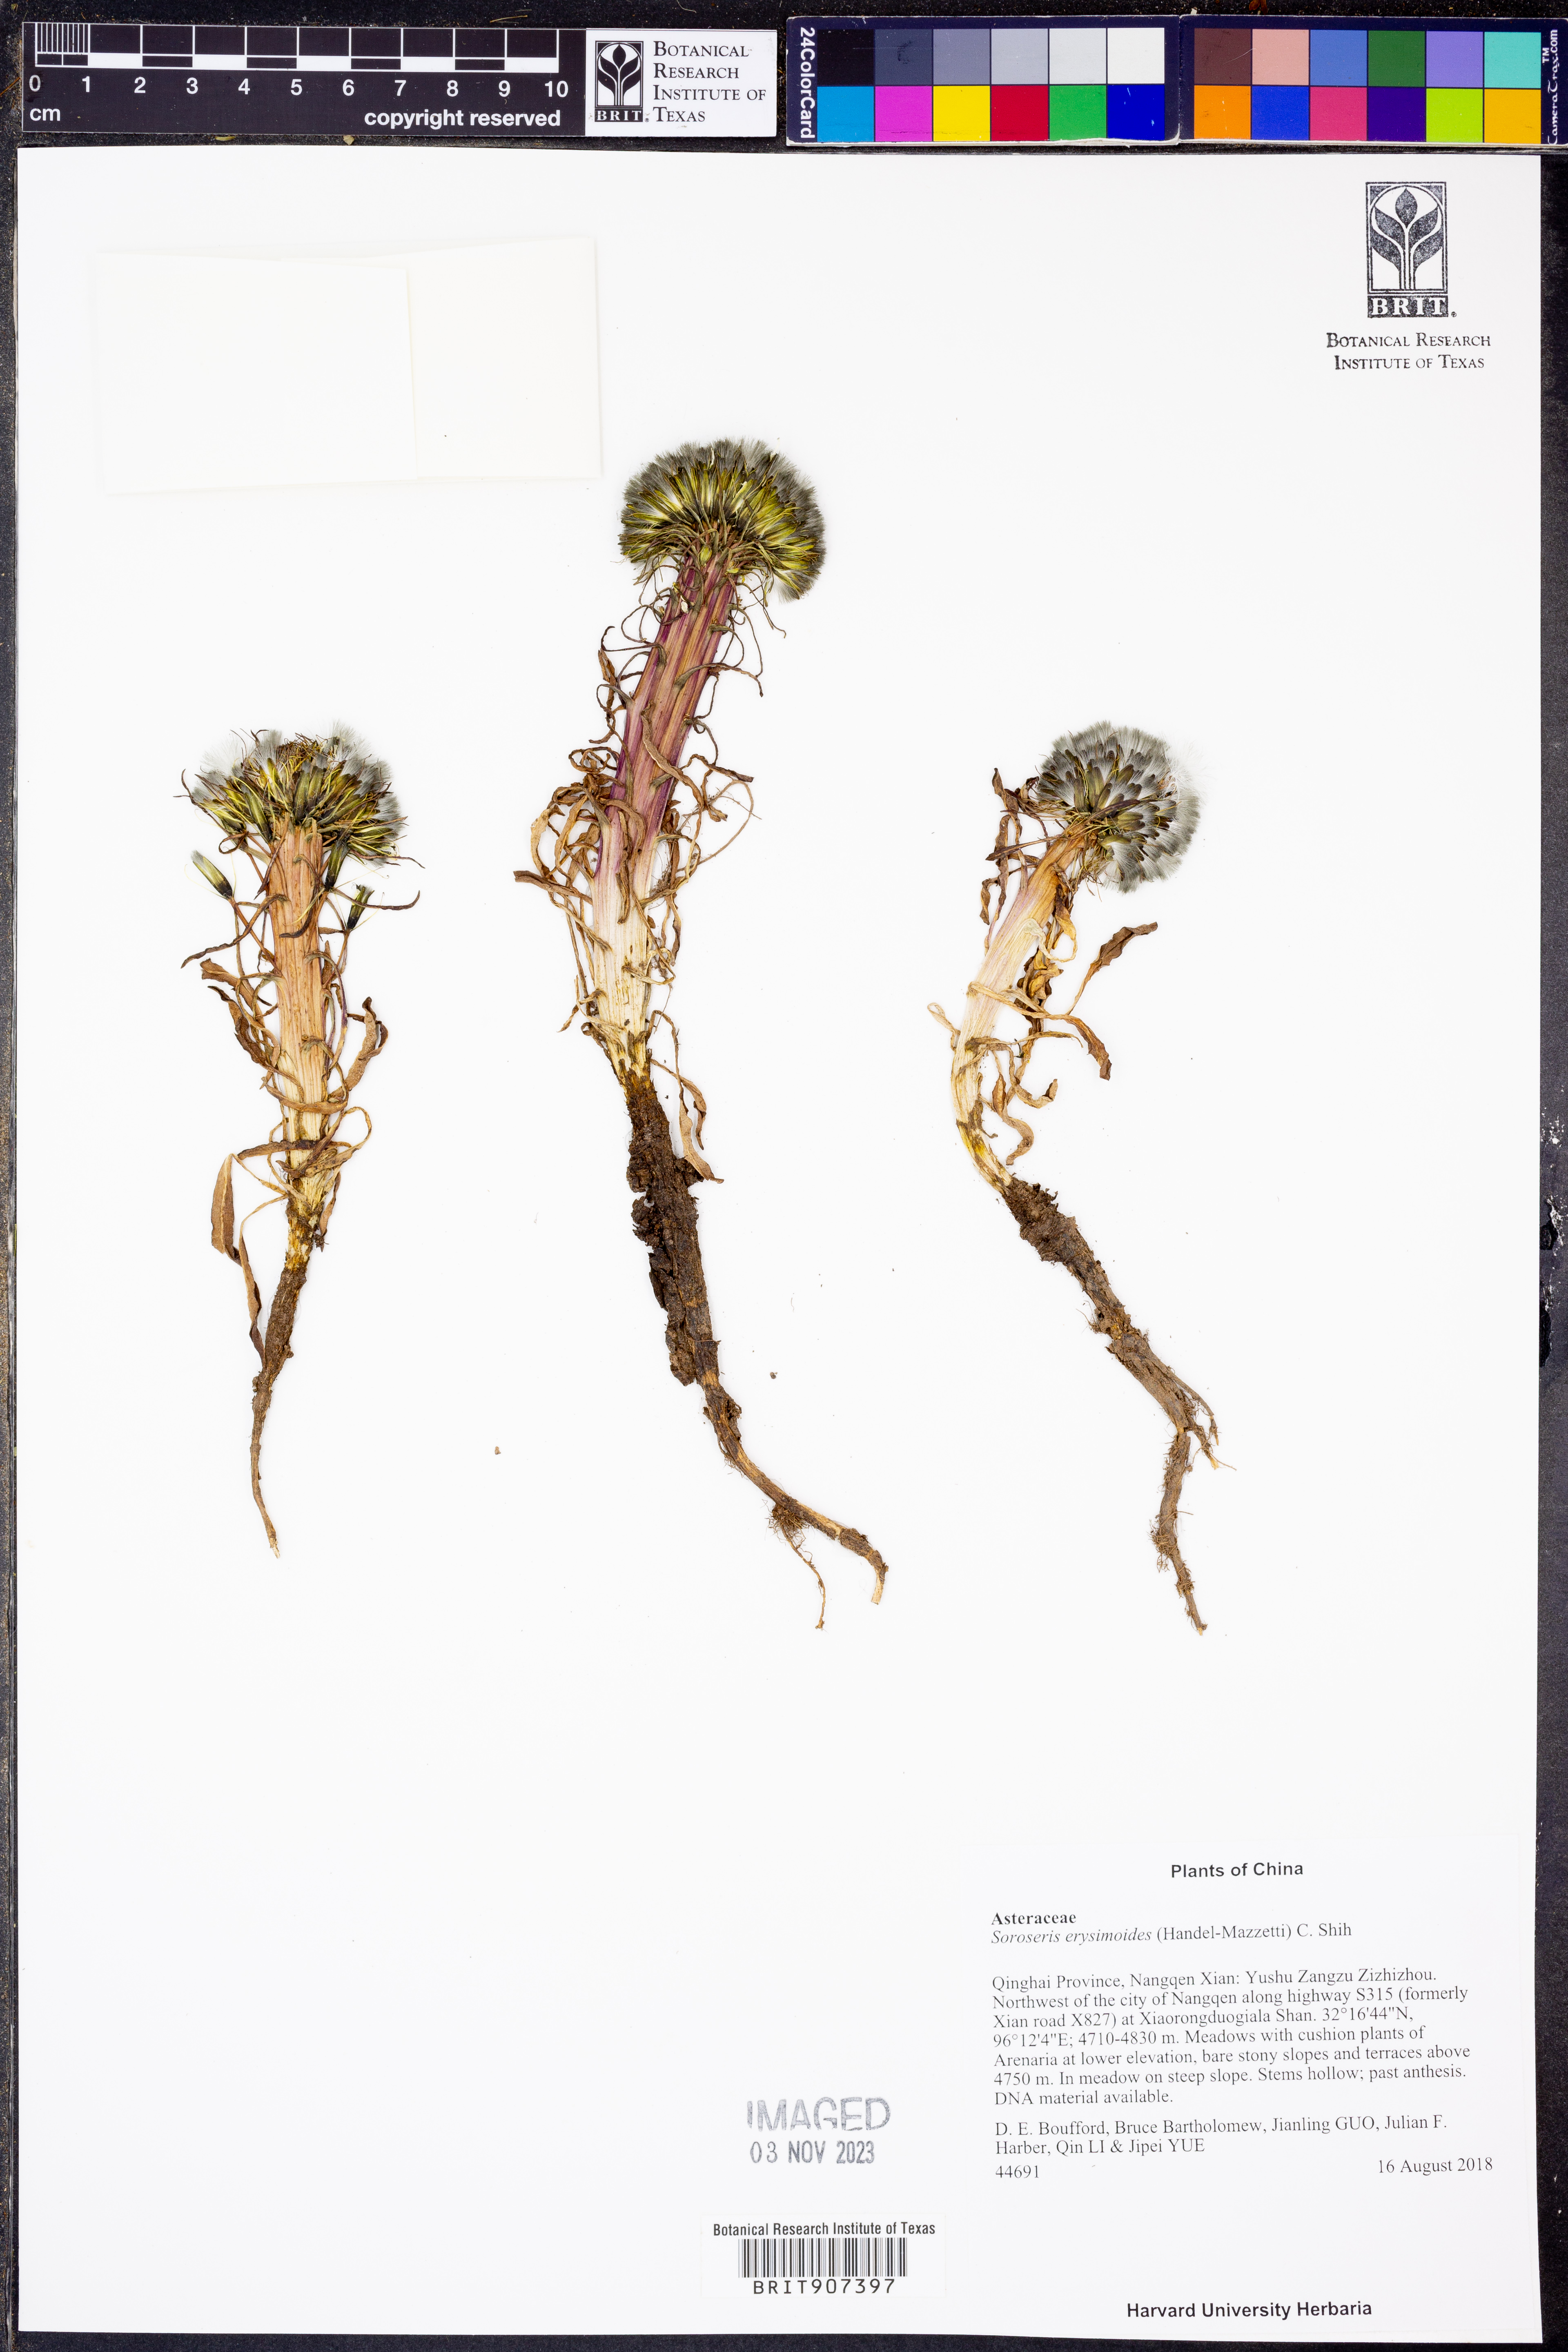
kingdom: Plantae
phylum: Tracheophyta
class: Magnoliopsida
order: Asterales
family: Asteraceae
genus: Soroseris
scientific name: Soroseris hookeriana
